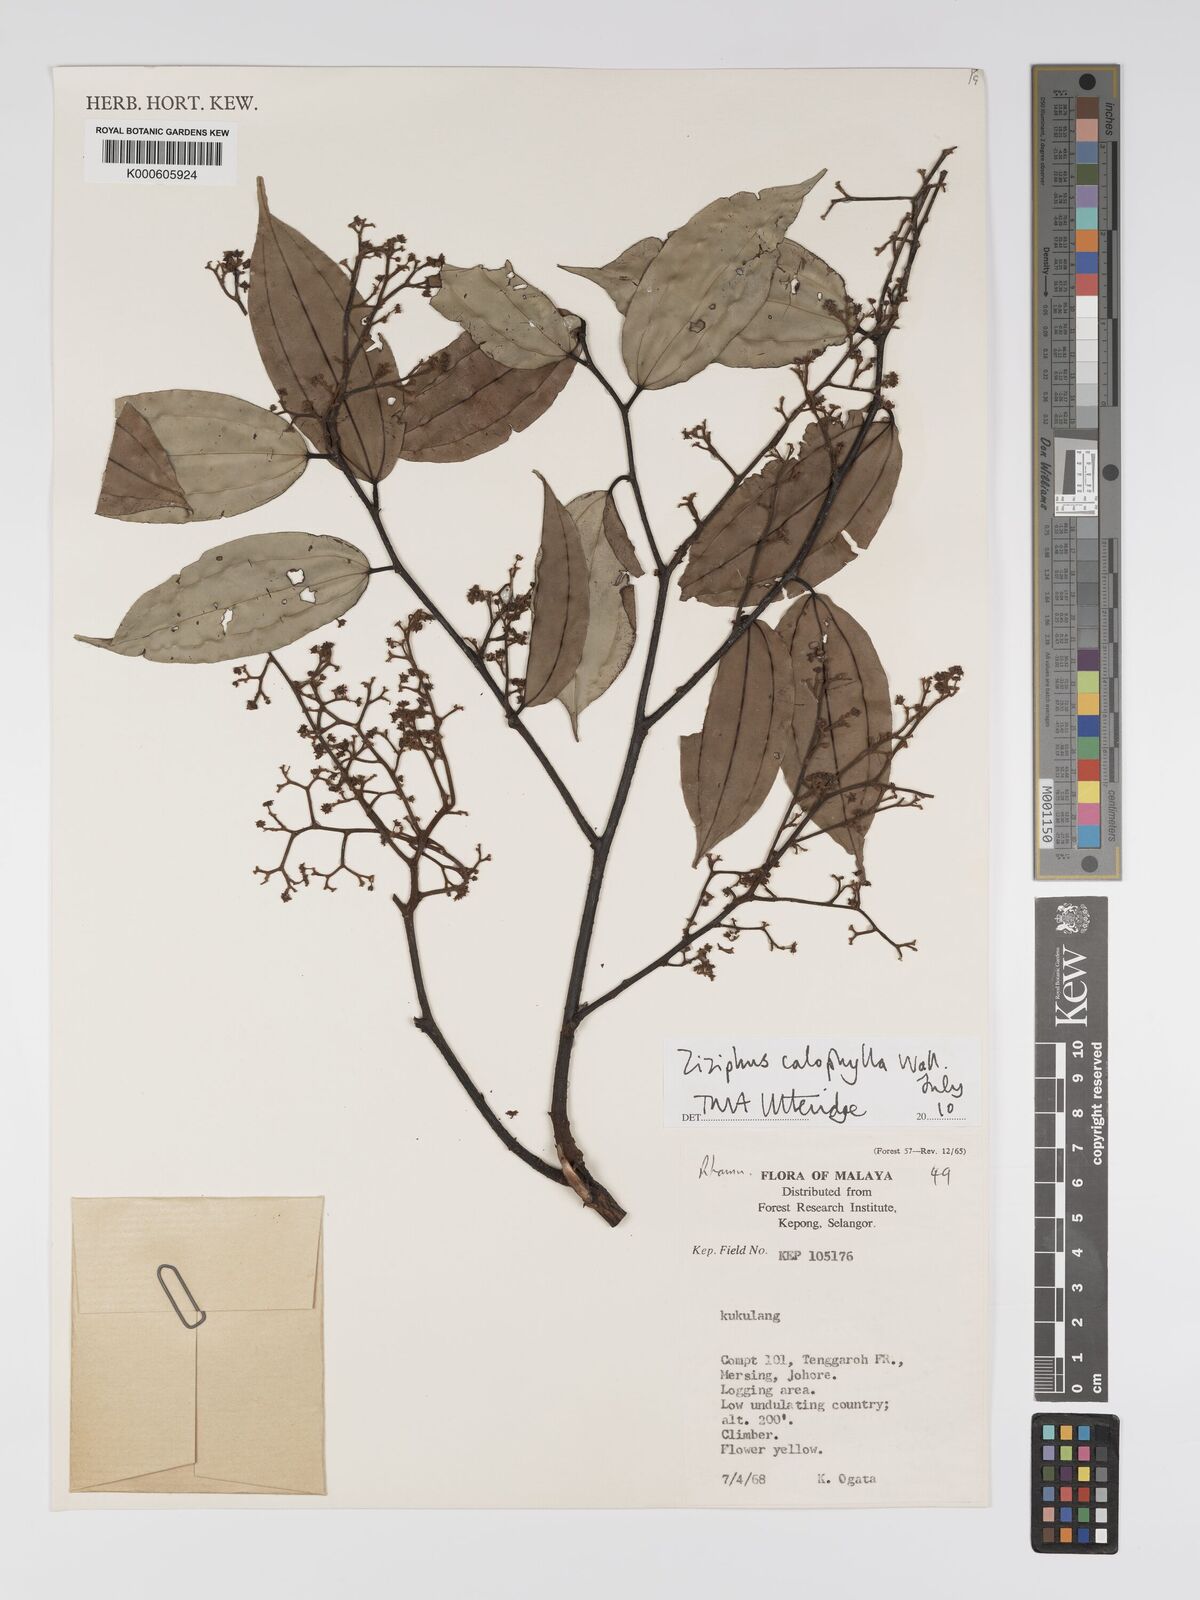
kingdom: Plantae
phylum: Tracheophyta
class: Magnoliopsida
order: Rosales
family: Rhamnaceae
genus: Ziziphus
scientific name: Ziziphus calophylla
